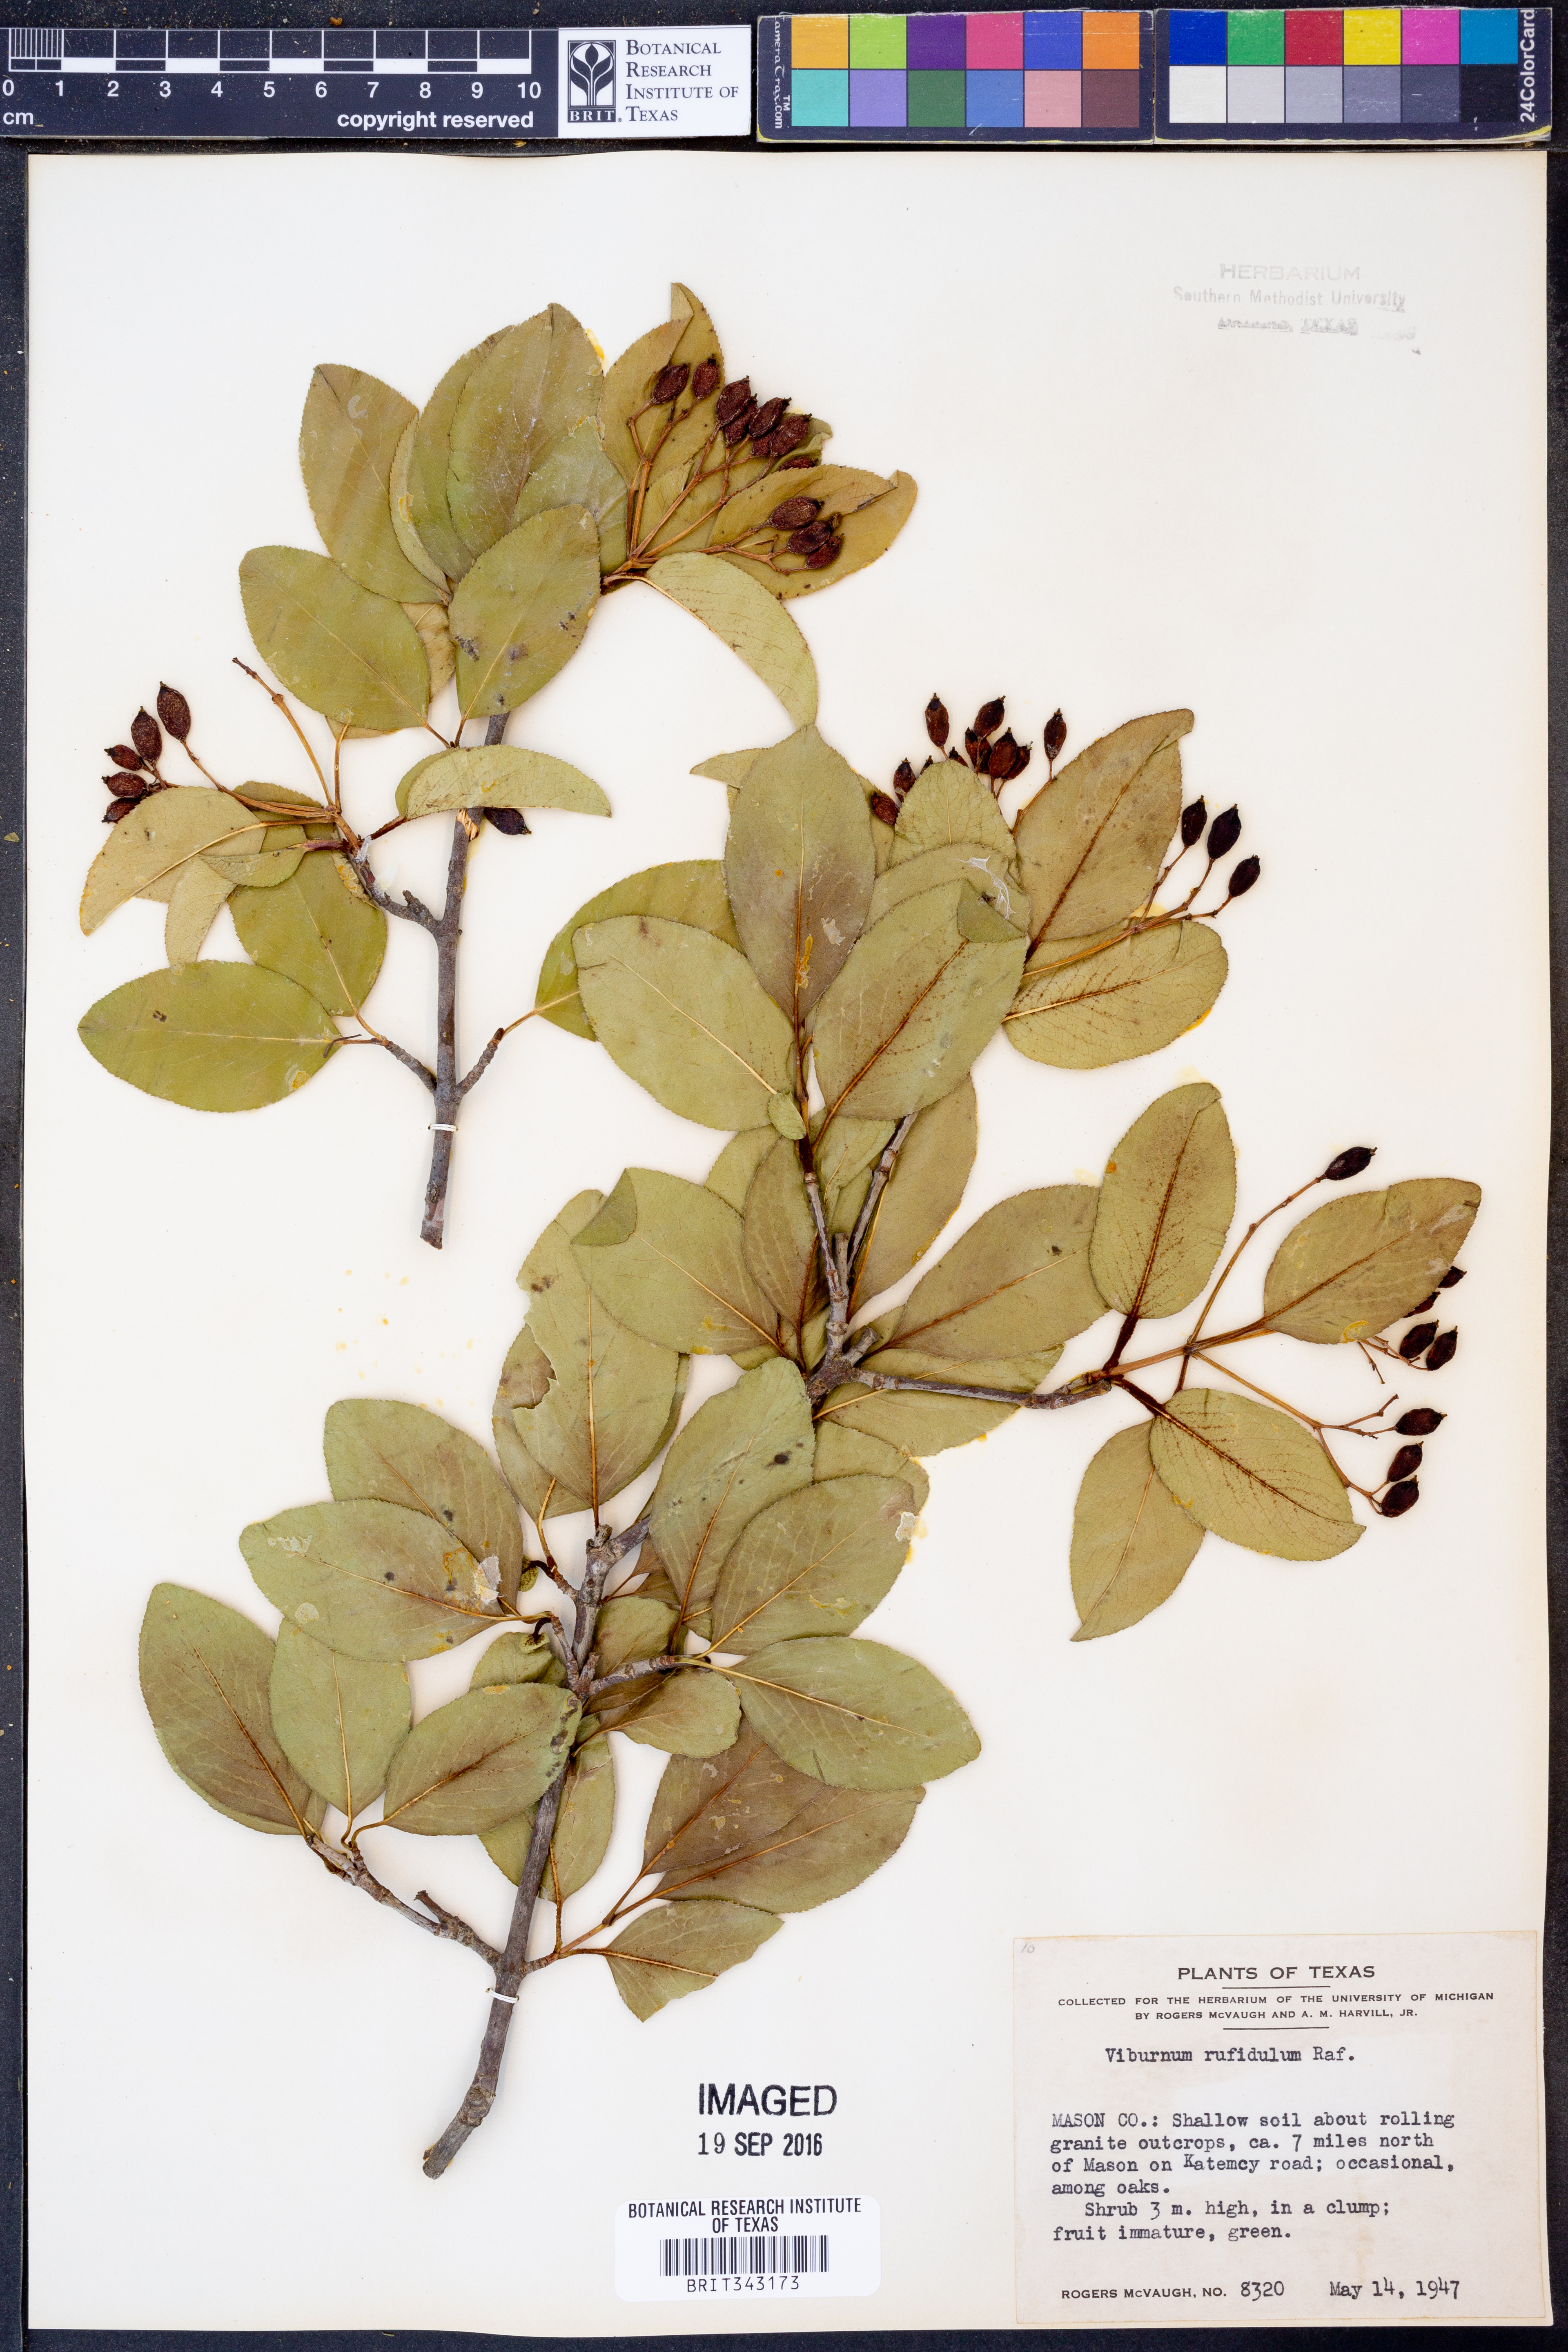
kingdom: Plantae
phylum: Tracheophyta
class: Magnoliopsida
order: Dipsacales
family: Viburnaceae
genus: Viburnum
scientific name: Viburnum rufidulum
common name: Blue haw
